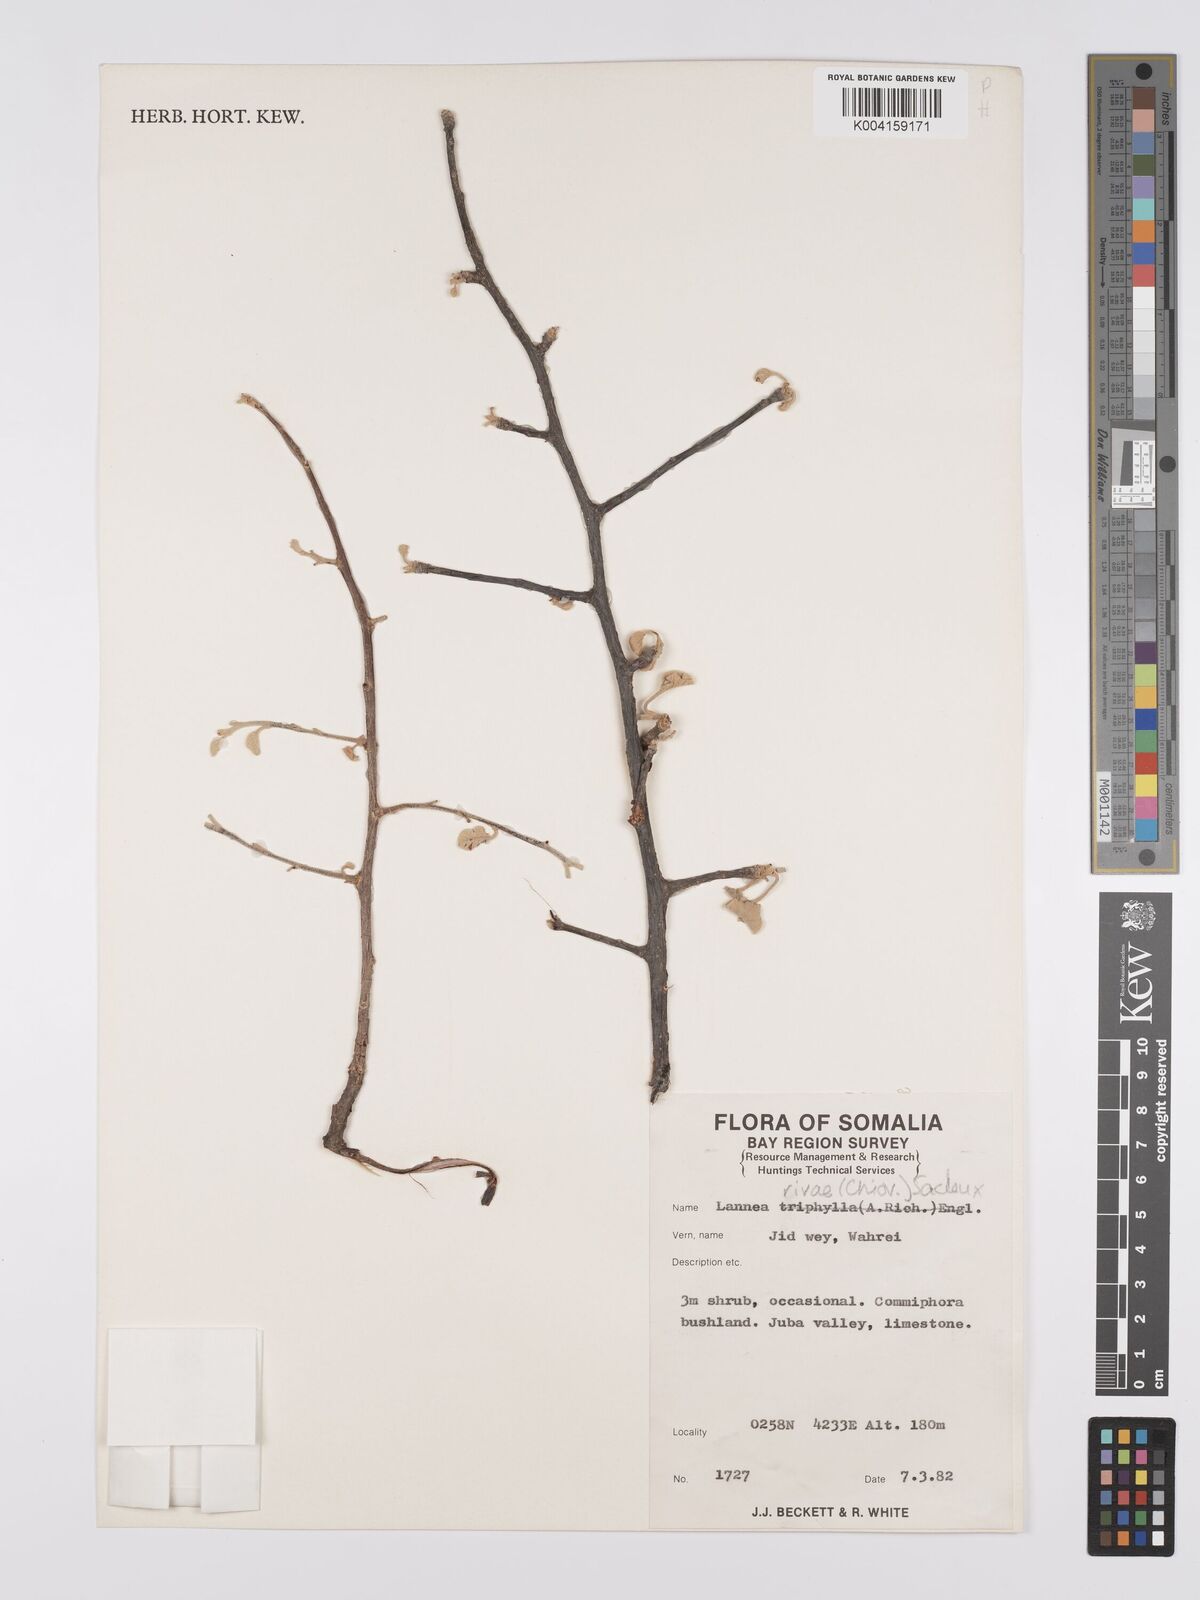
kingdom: Plantae
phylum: Tracheophyta
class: Magnoliopsida
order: Sapindales
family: Anacardiaceae
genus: Lannea
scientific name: Lannea rivae
